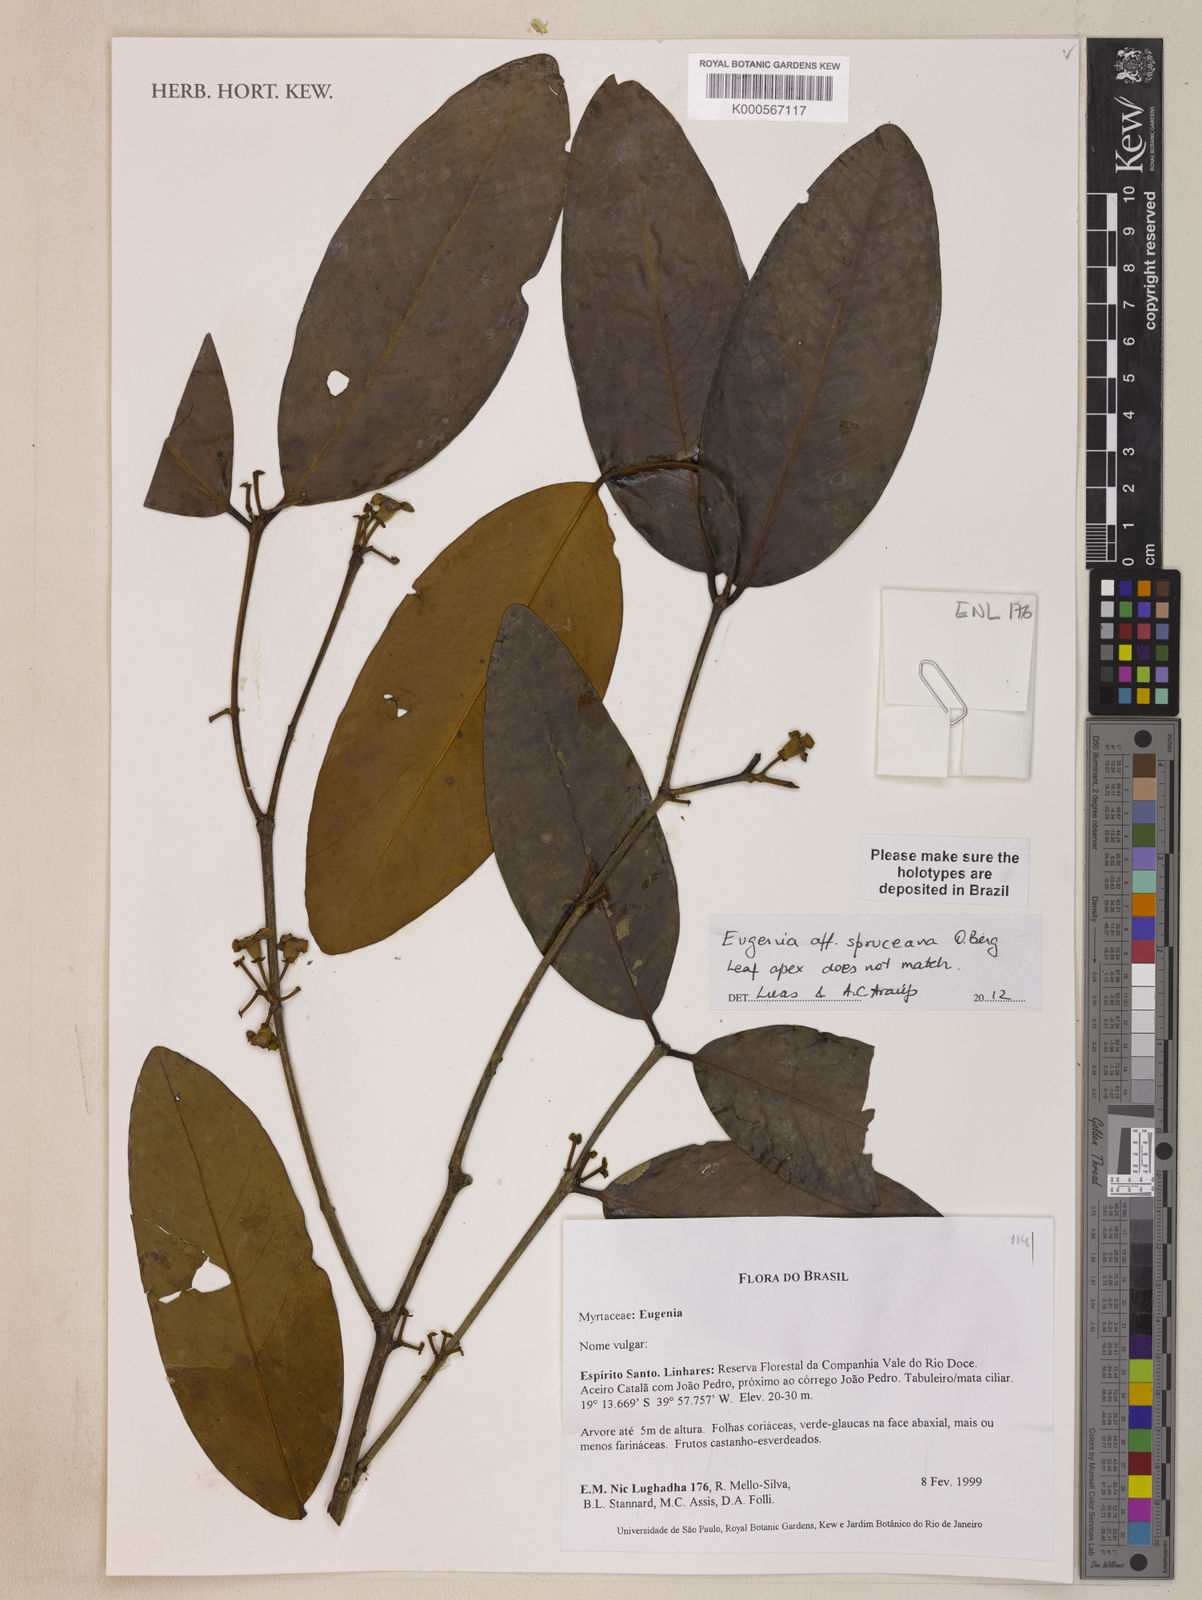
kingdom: Plantae
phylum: Tracheophyta
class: Magnoliopsida
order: Myrtales
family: Myrtaceae
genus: Eugenia
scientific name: Eugenia moritziana
